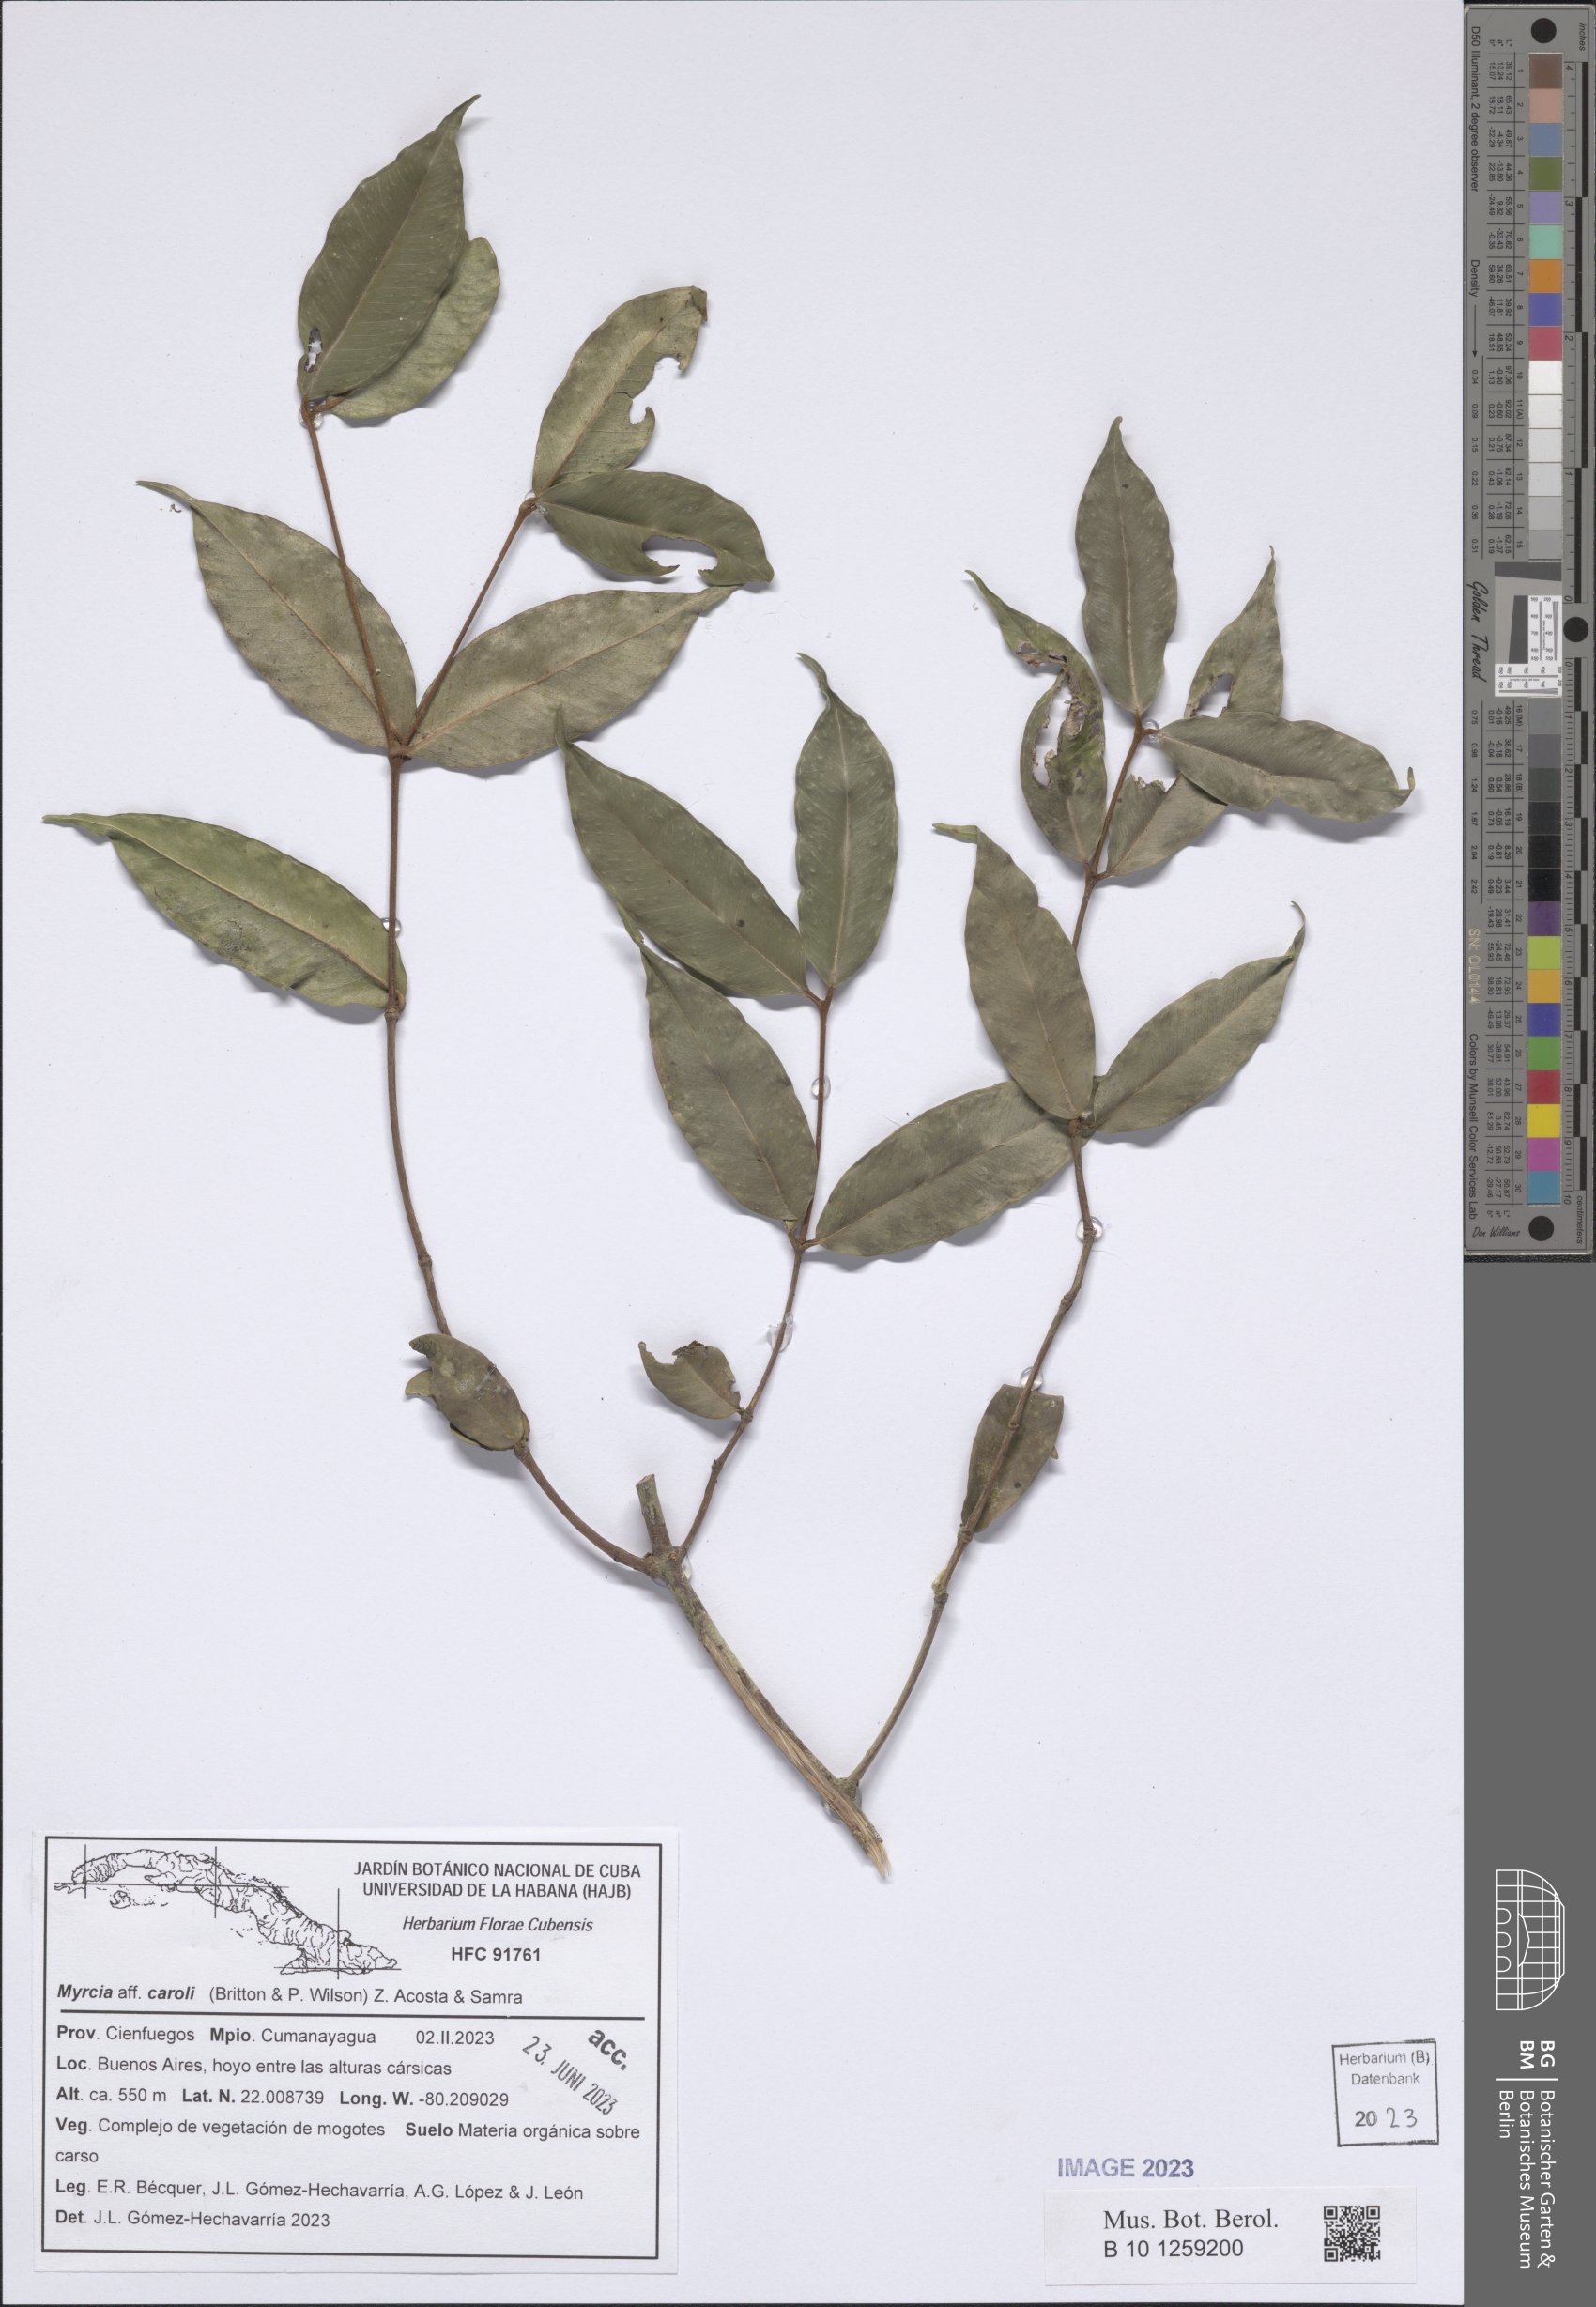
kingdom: Plantae
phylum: Tracheophyta
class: Magnoliopsida
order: Myrtales
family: Myrtaceae
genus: Myrcia
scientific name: Myrcia caroli
